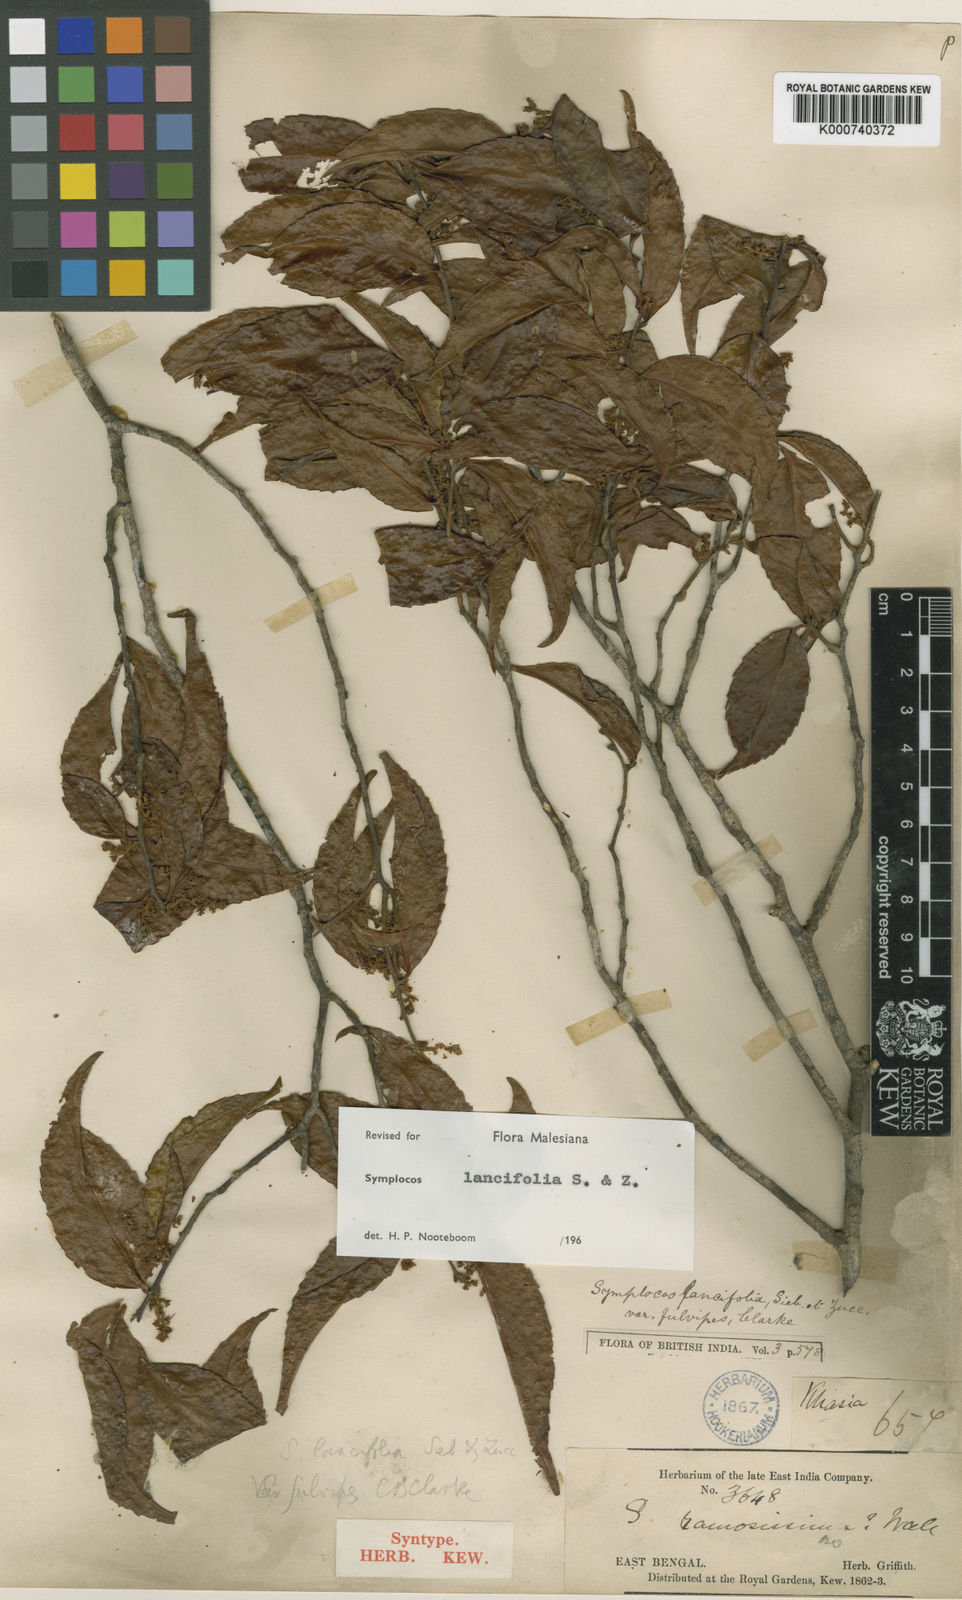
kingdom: Plantae
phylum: Tracheophyta
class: Magnoliopsida
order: Ericales
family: Symplocaceae
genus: Symplocos
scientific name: Symplocos lancifolia
